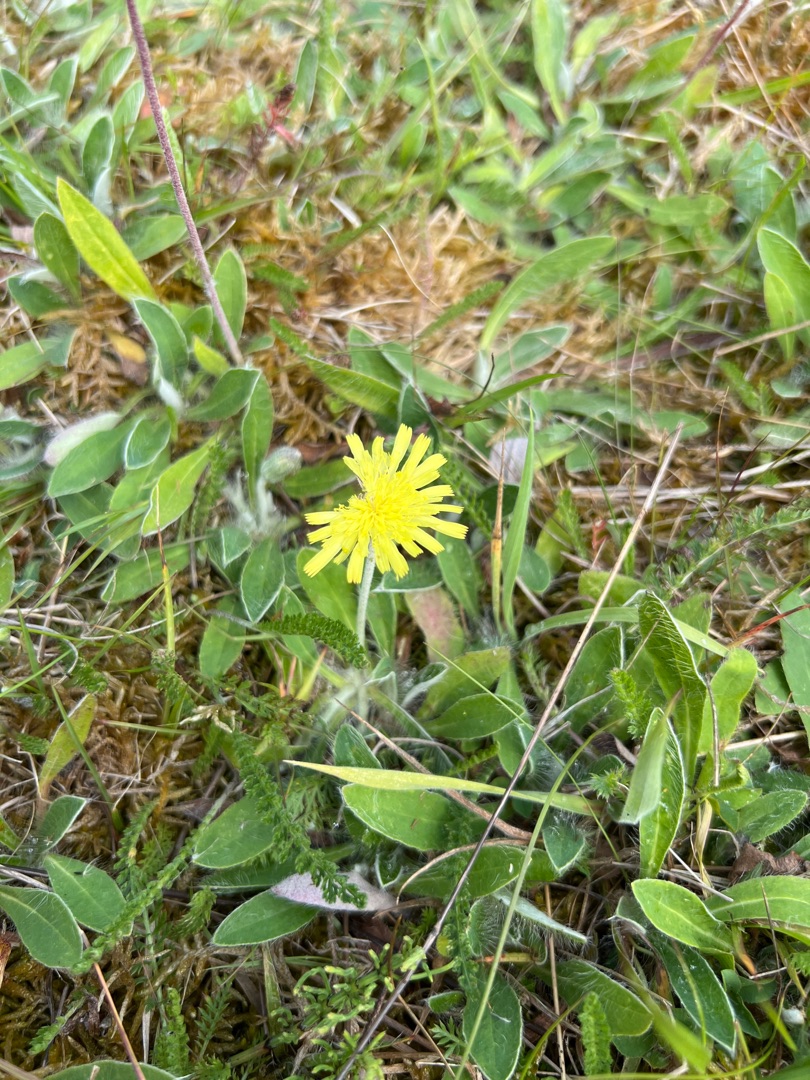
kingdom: Plantae
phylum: Tracheophyta
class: Magnoliopsida
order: Asterales
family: Asteraceae
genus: Pilosella
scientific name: Pilosella officinarum
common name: Håret høgeurt
